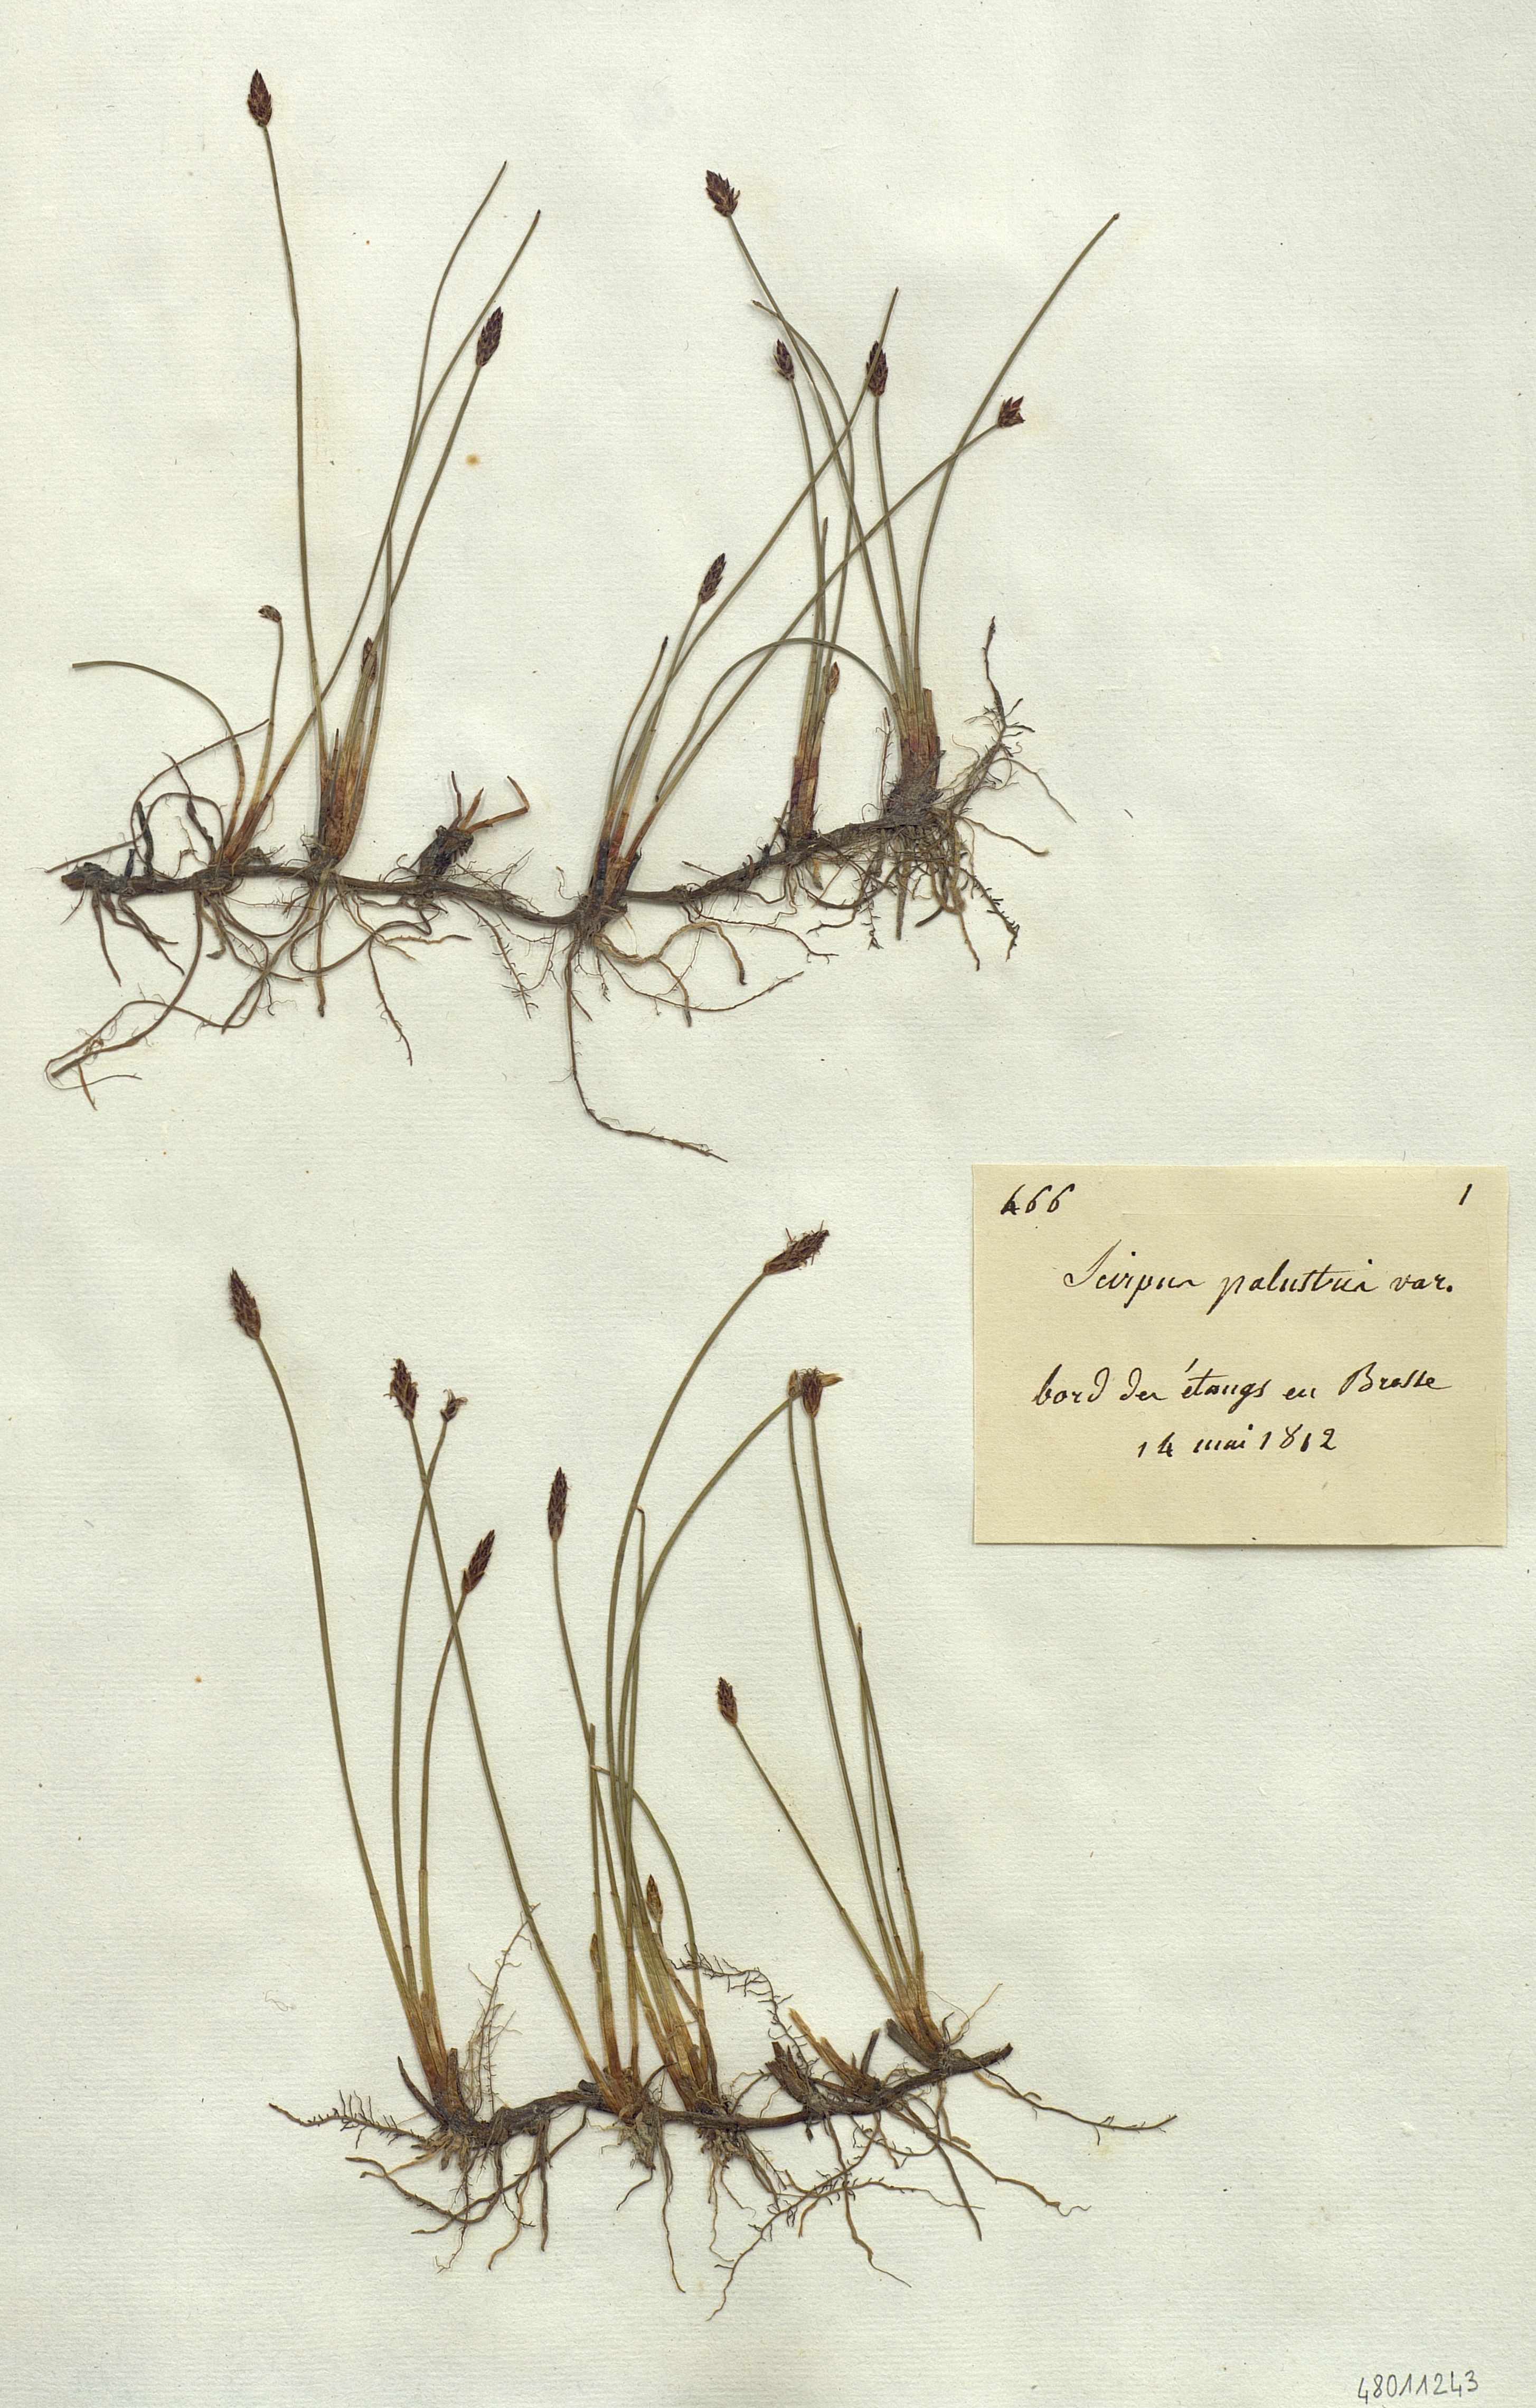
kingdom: Plantae
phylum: Tracheophyta
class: Liliopsida
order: Poales
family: Cyperaceae
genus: Eleocharis
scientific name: Eleocharis palustris
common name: Common spike-rush
